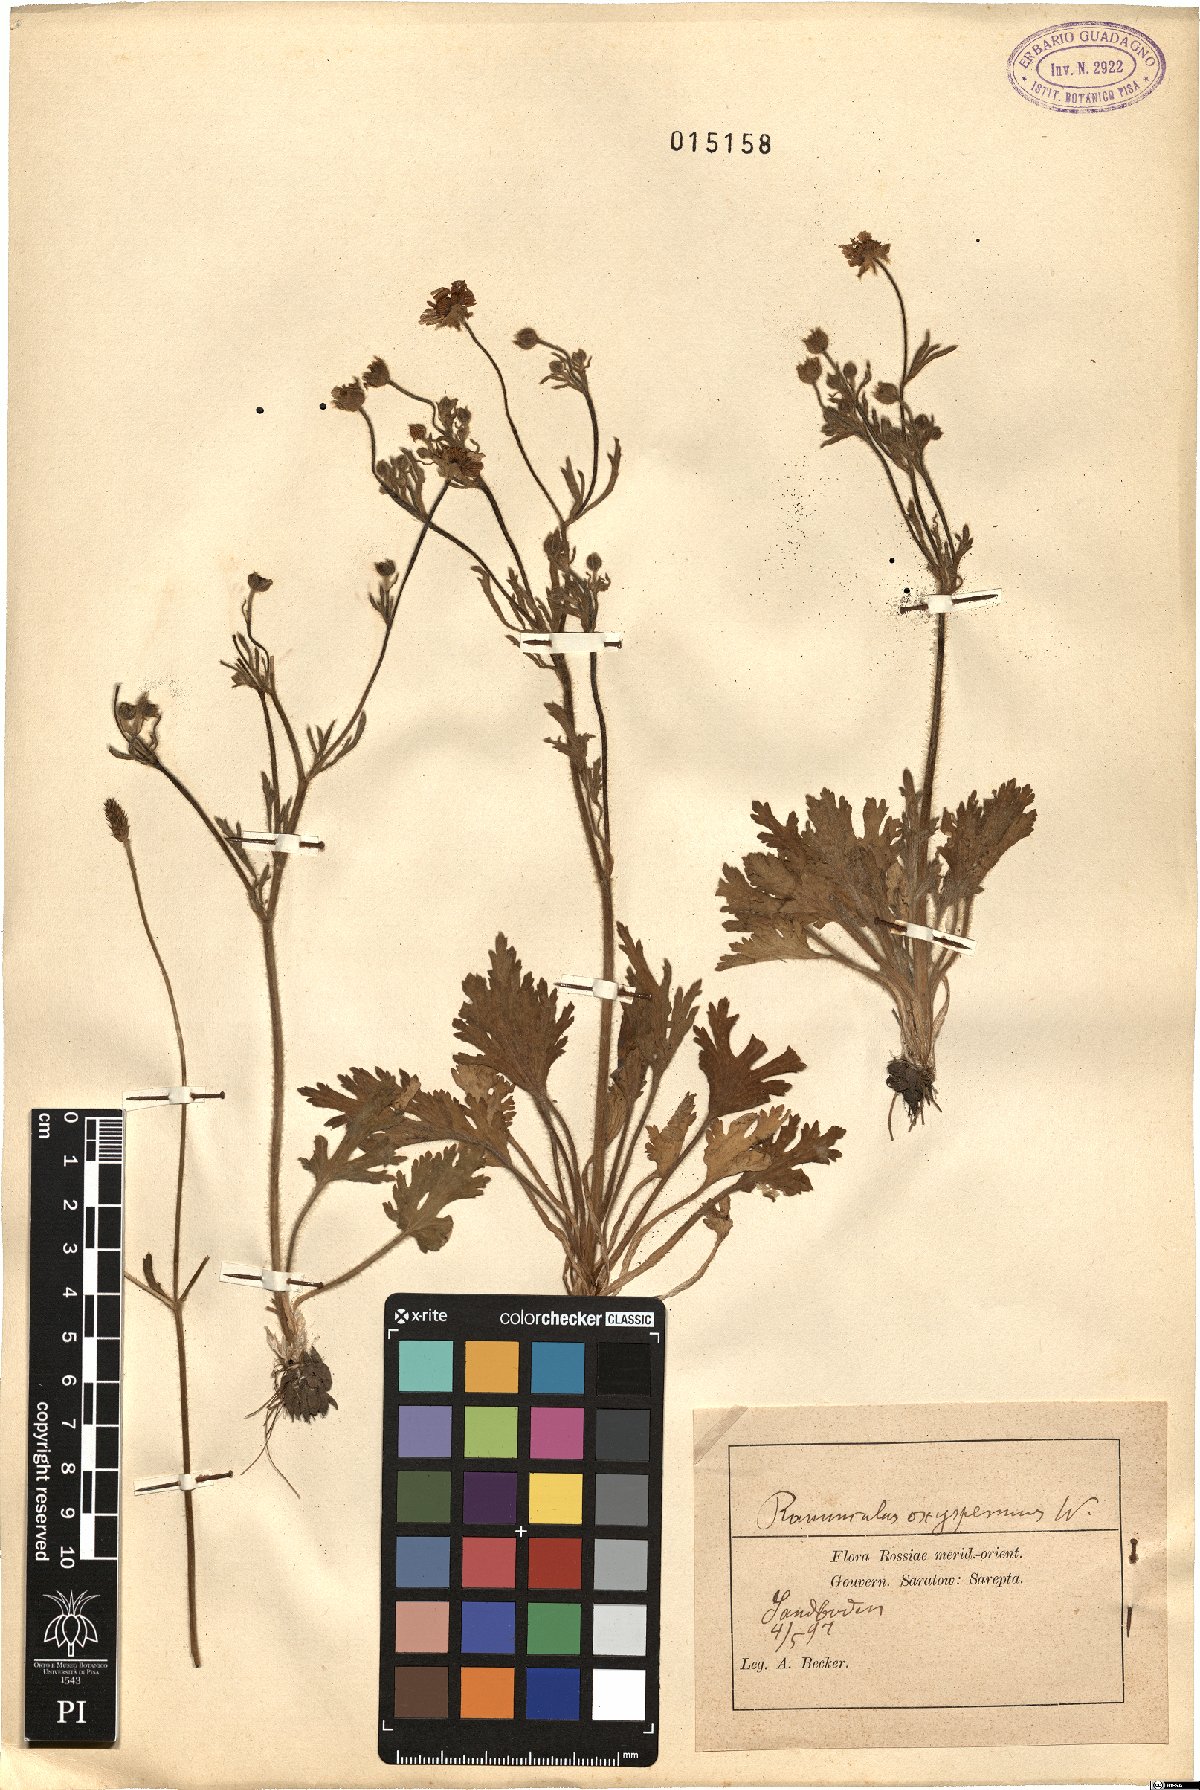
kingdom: Plantae
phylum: Tracheophyta
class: Magnoliopsida
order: Ranunculales
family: Ranunculaceae
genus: Ranunculus
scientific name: Ranunculus oxyspermus
